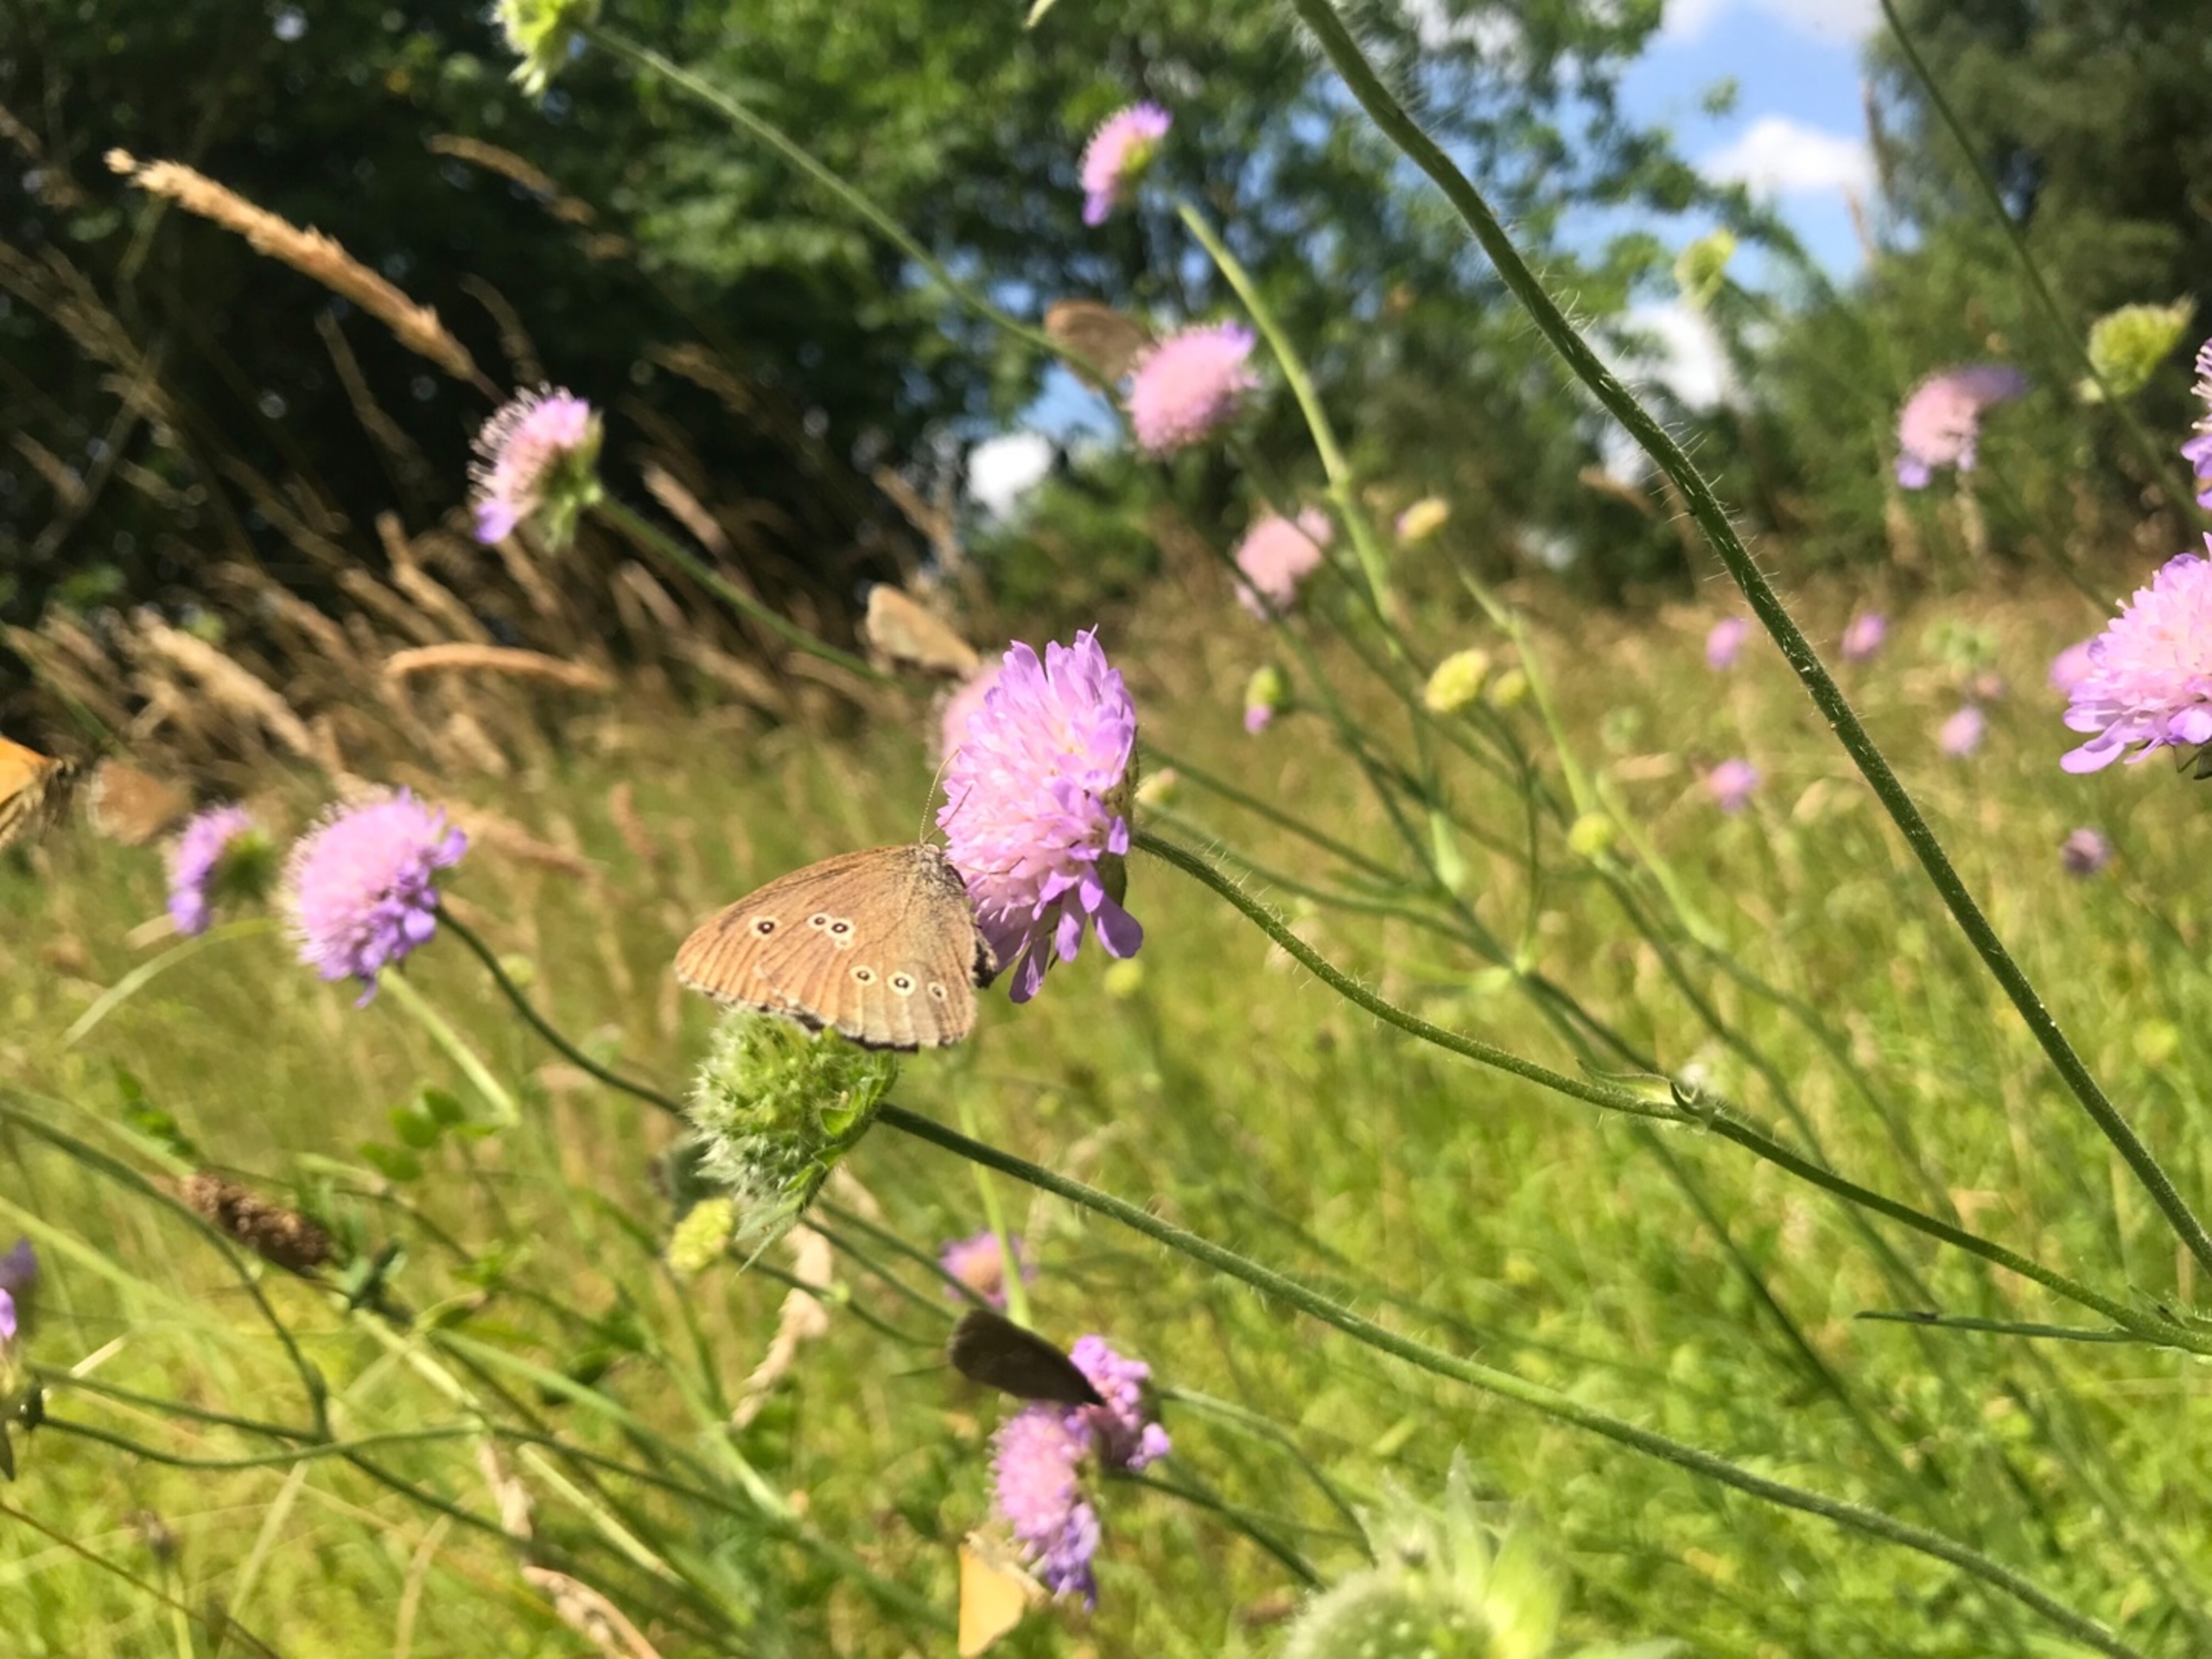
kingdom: Animalia
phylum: Arthropoda
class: Insecta
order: Lepidoptera
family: Nymphalidae
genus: Aphantopus
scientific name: Aphantopus hyperantus
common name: Engrandøje
